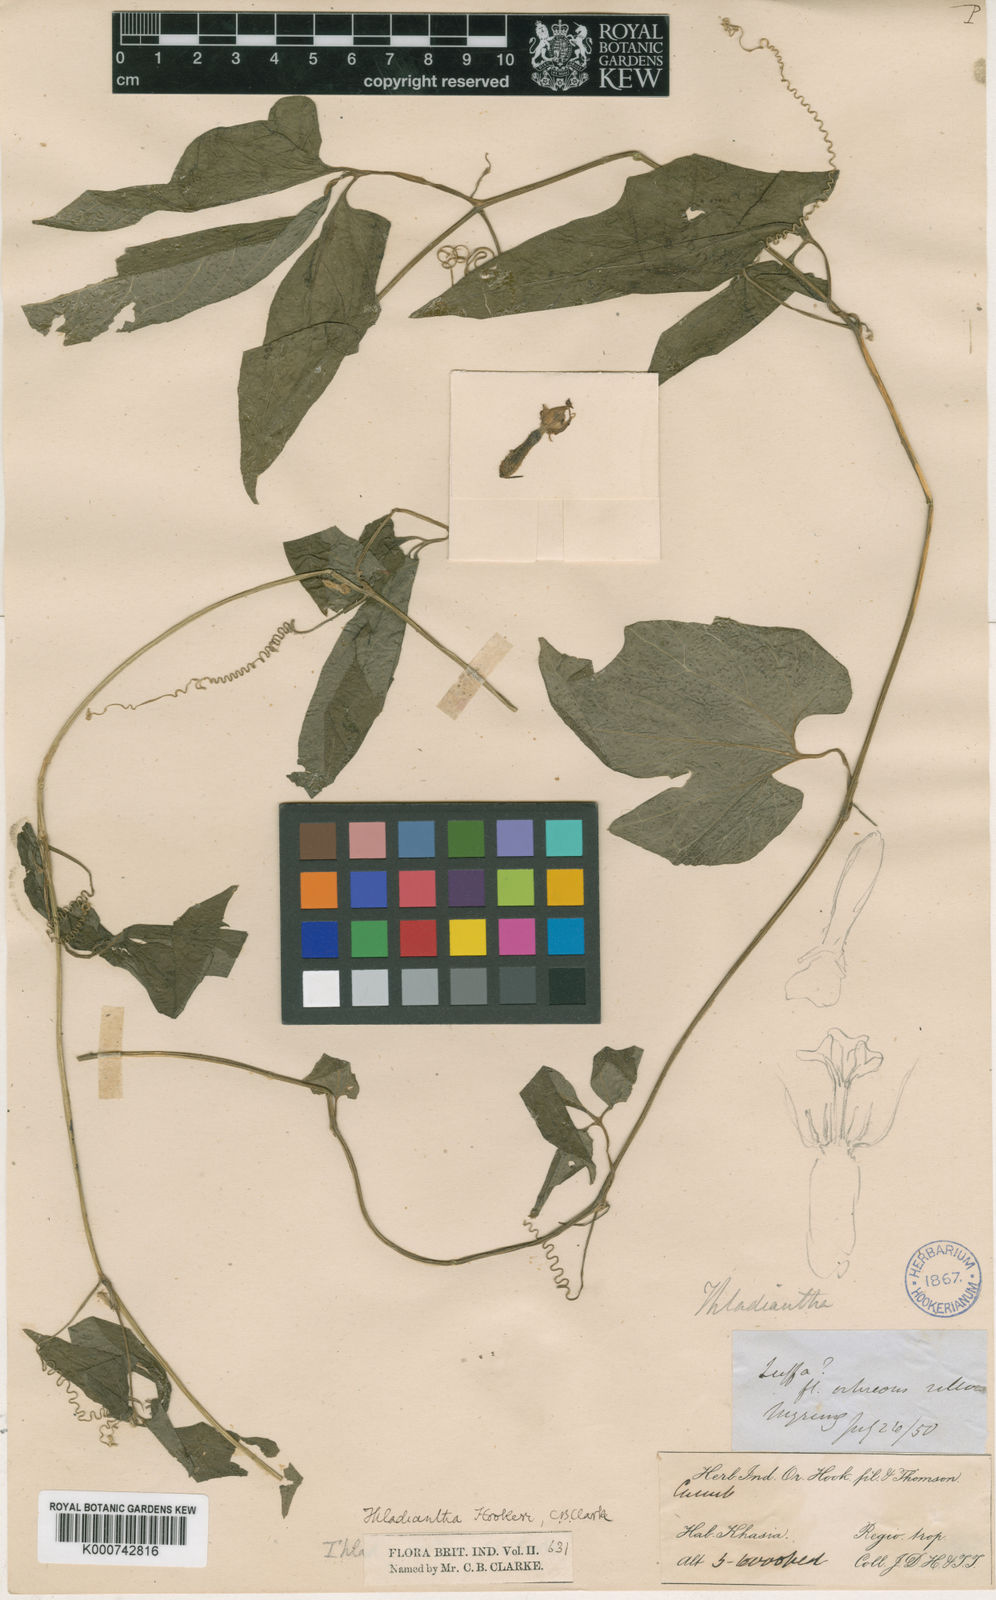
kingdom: Plantae
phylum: Tracheophyta
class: Magnoliopsida
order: Cucurbitales
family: Cucurbitaceae
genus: Thladiantha
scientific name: Thladiantha hookeri
